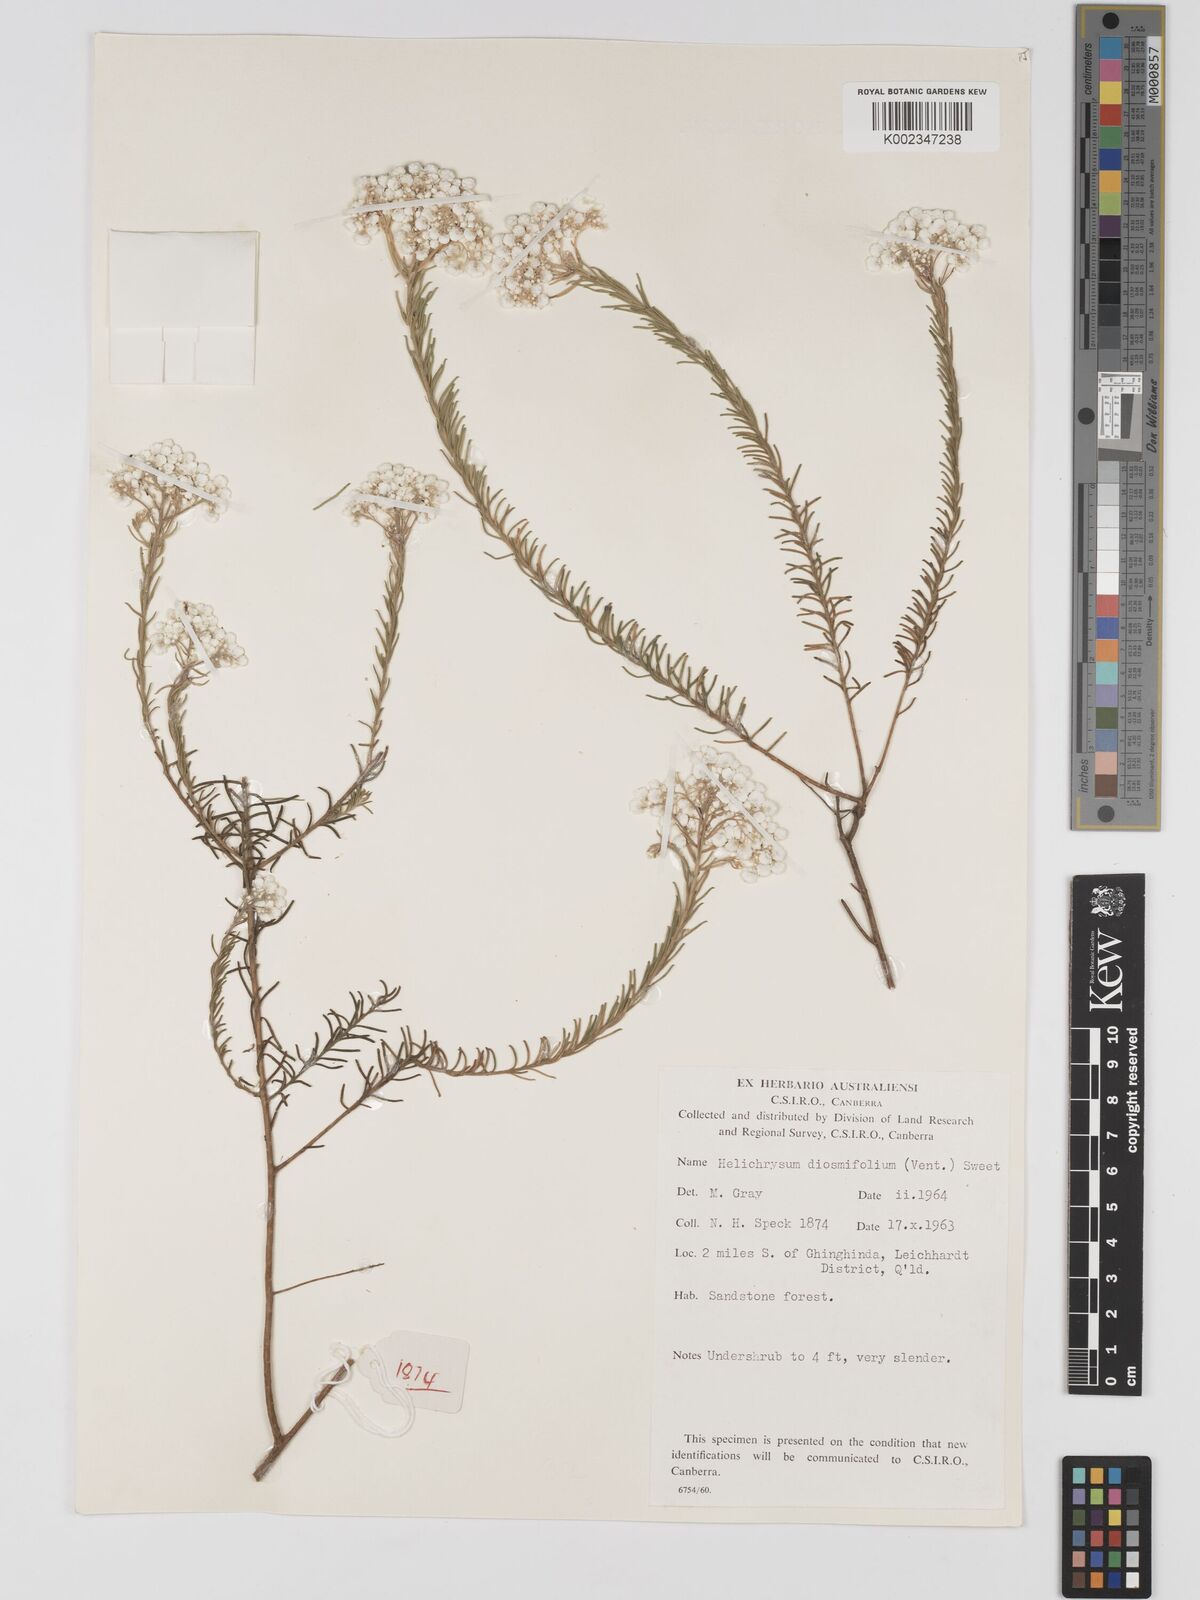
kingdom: Plantae
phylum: Tracheophyta
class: Magnoliopsida
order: Asterales
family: Asteraceae
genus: Ozothamnus
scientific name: Ozothamnus diosmifolius
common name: White-dogwood
